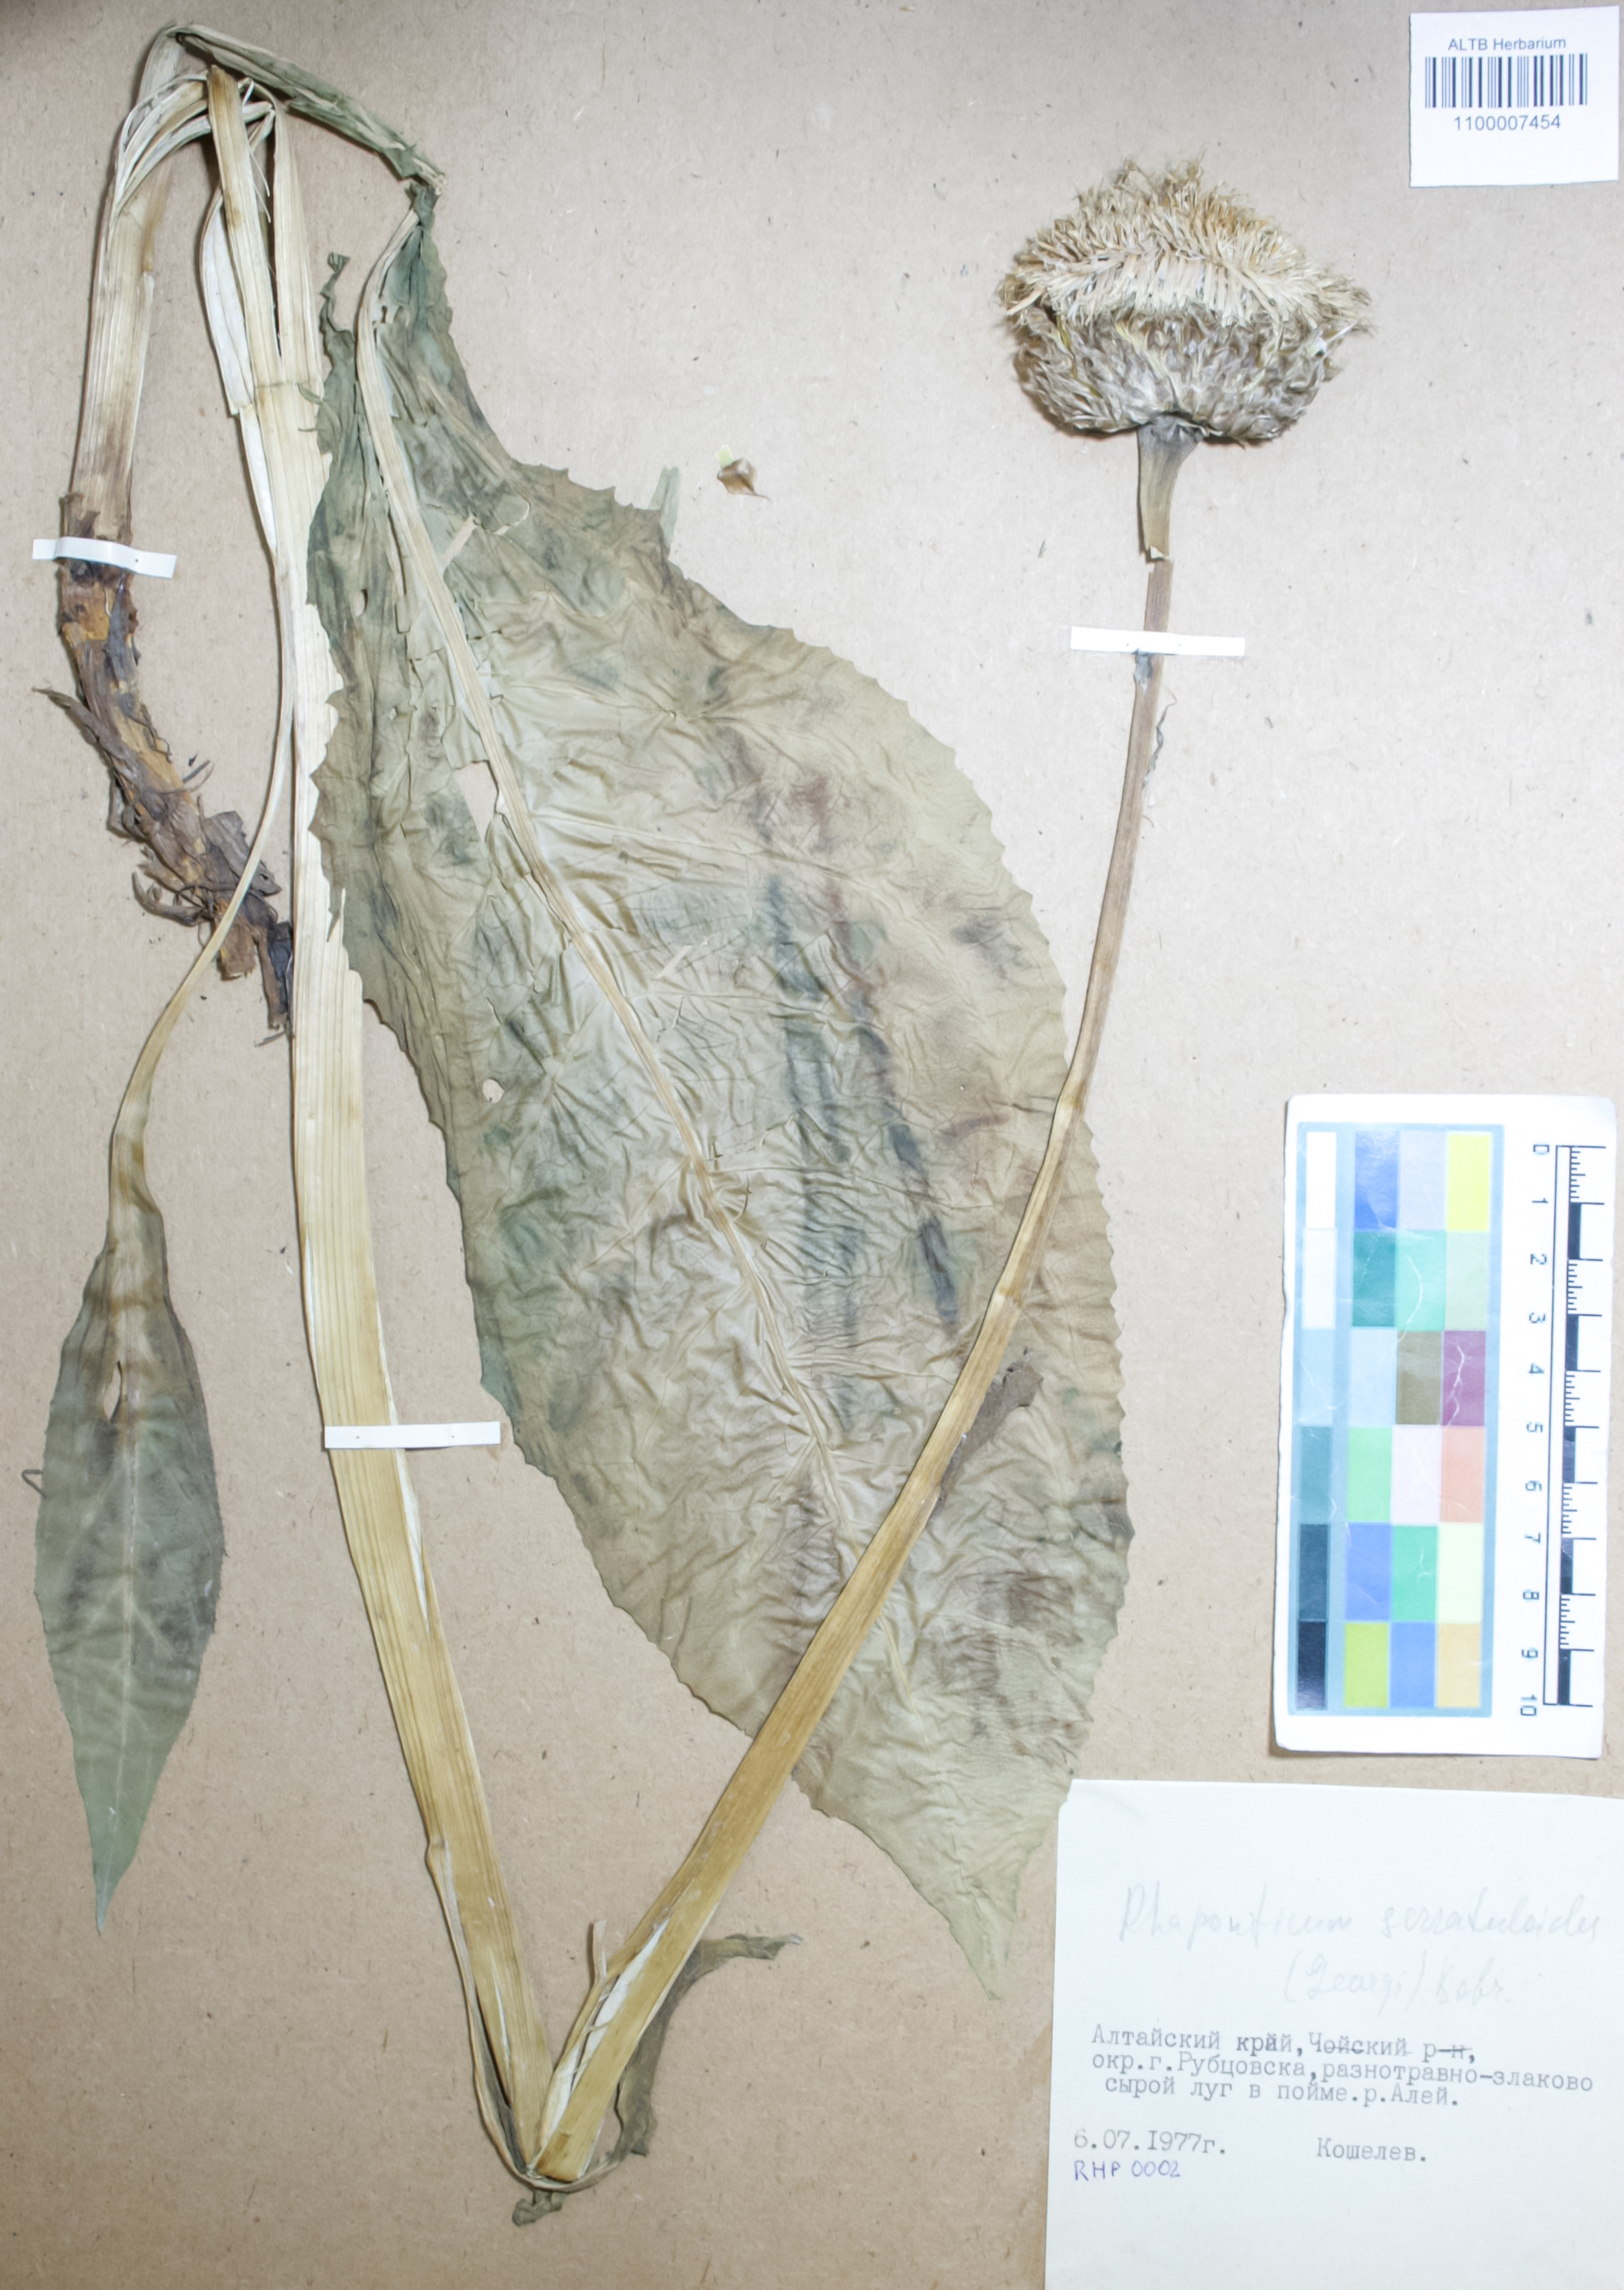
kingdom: Plantae
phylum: Tracheophyta
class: Magnoliopsida
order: Asterales
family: Asteraceae
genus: Leuzea
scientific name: Leuzea altaica
